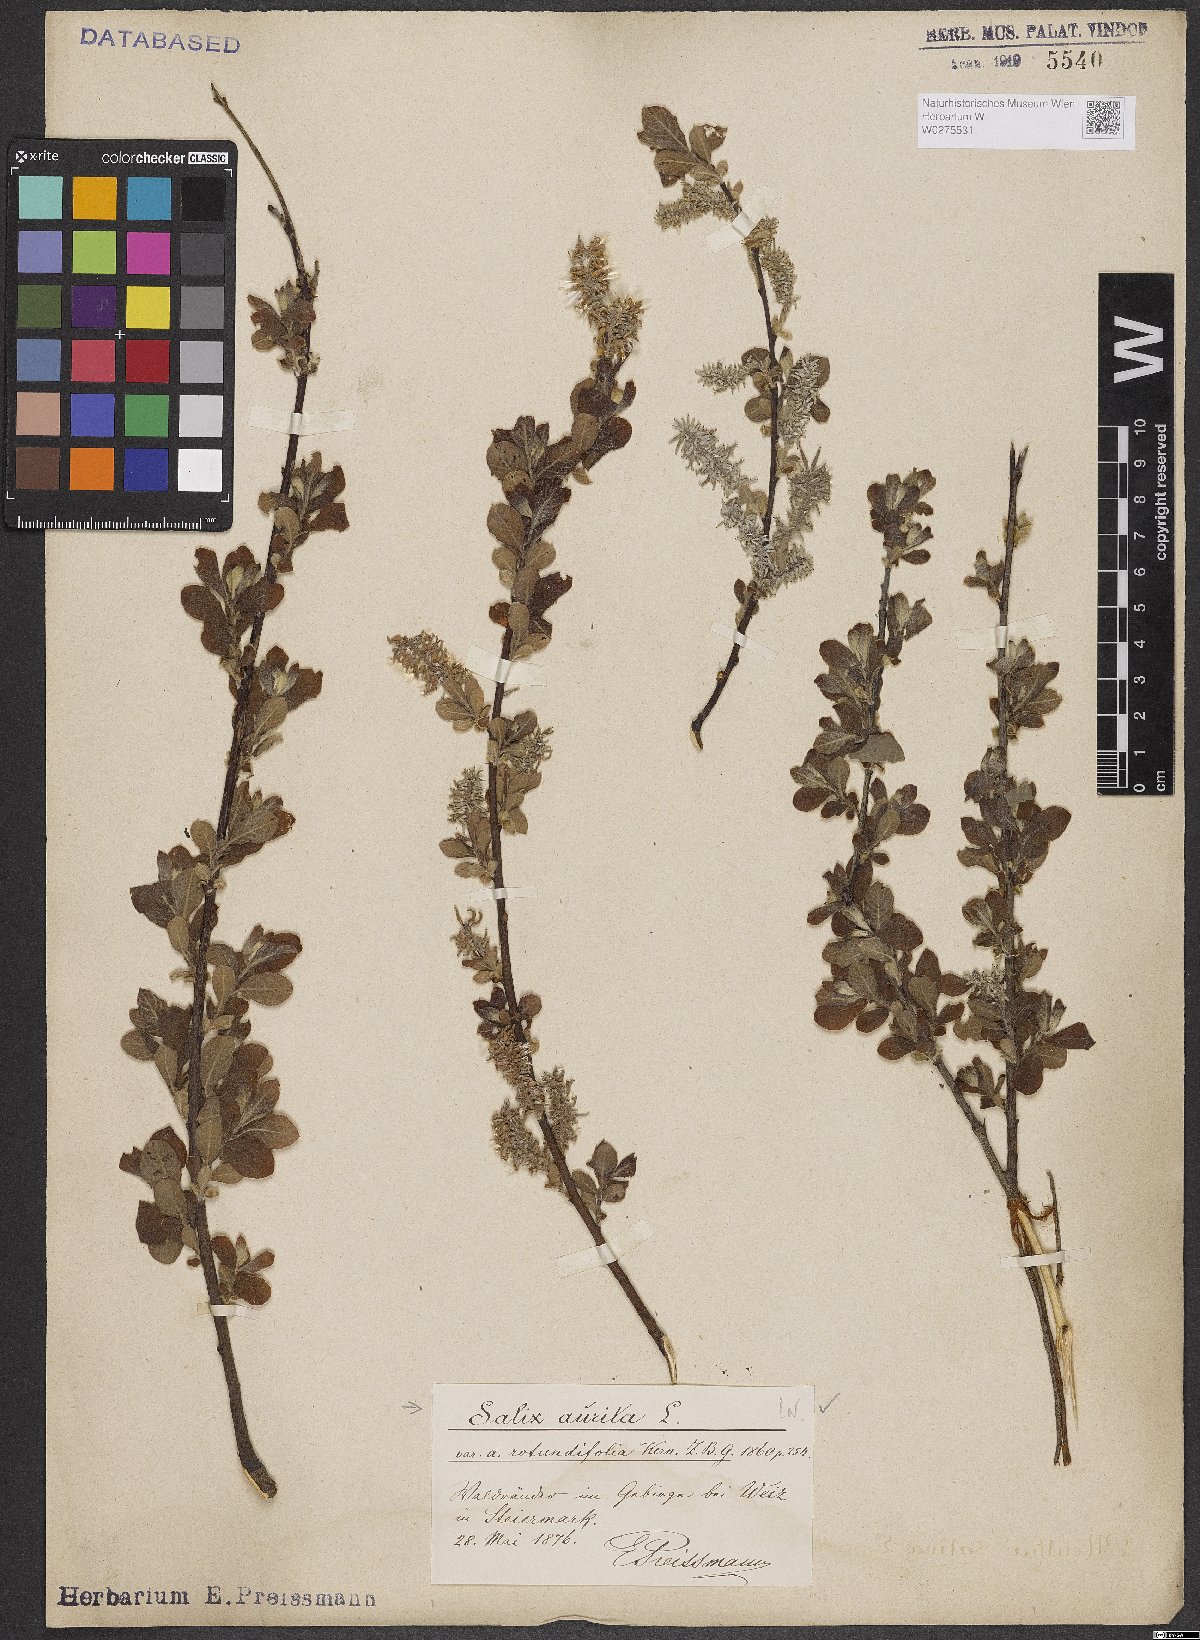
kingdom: Plantae
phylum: Tracheophyta
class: Magnoliopsida
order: Malpighiales
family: Salicaceae
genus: Salix
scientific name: Salix aurita
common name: Eared willow
